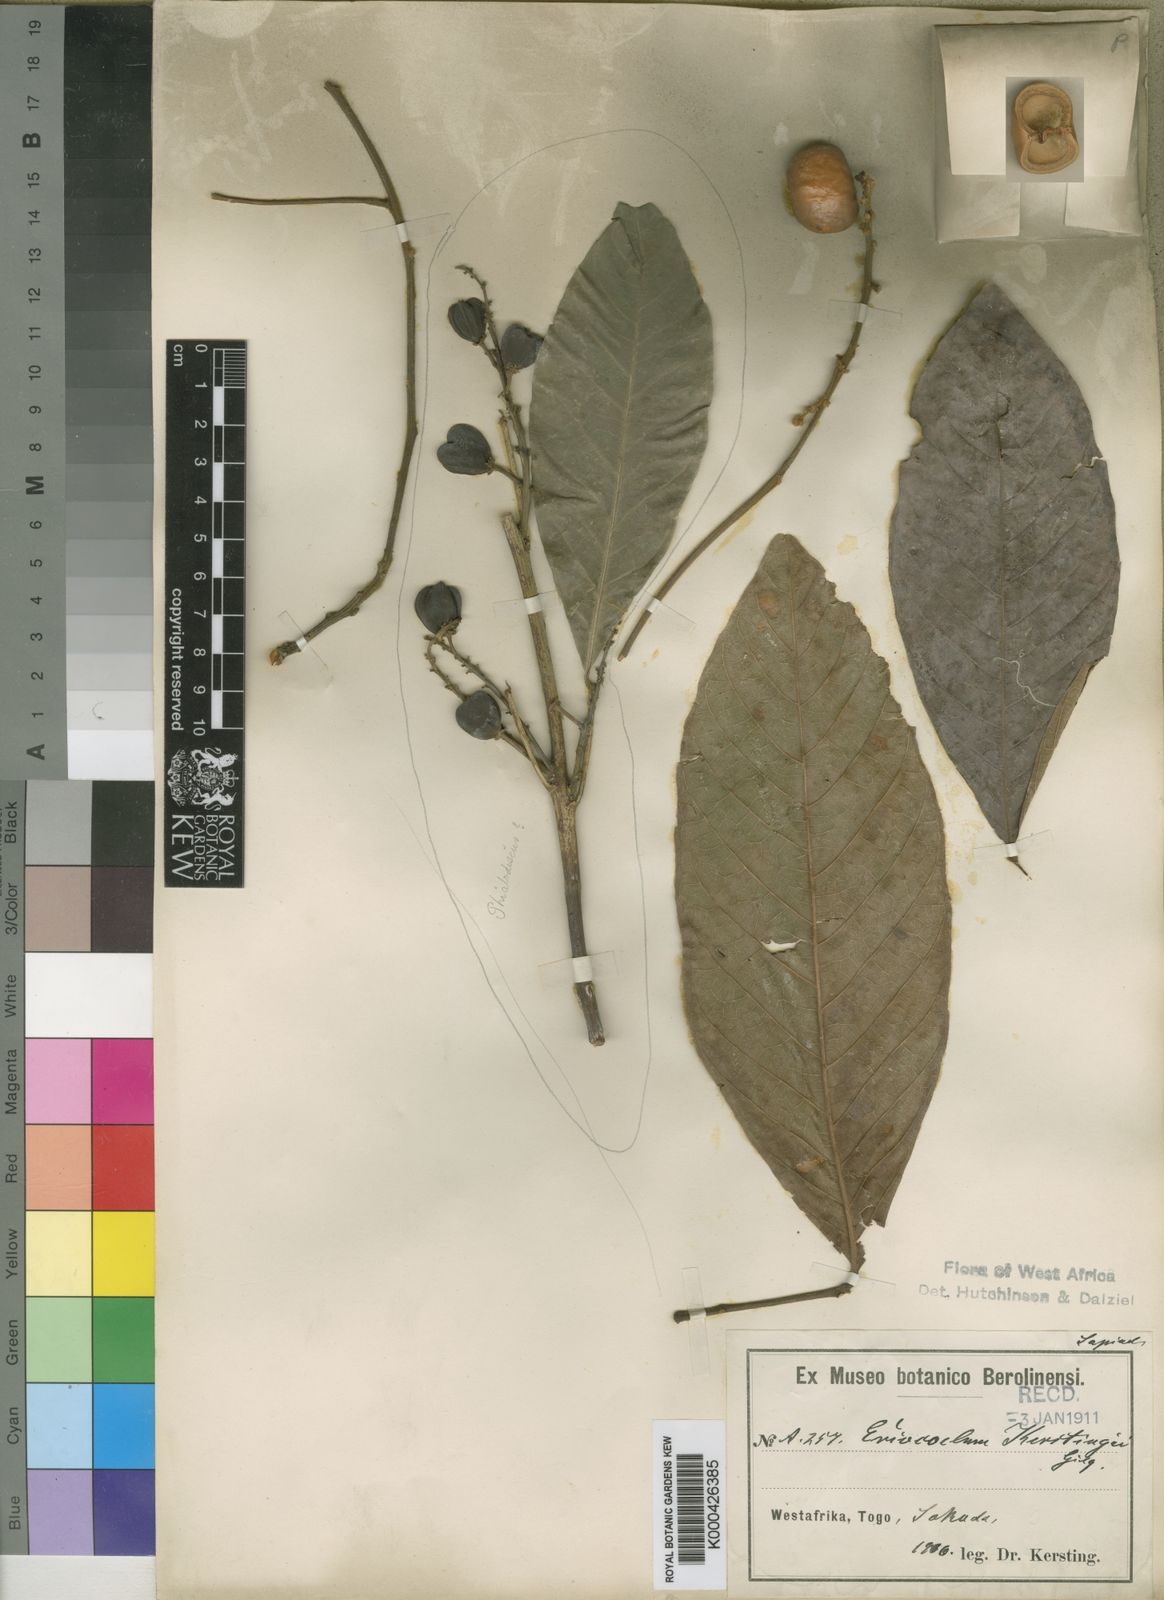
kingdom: Plantae
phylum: Tracheophyta
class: Magnoliopsida
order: Sapindales
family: Sapindaceae
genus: Eriocoelum
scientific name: Eriocoelum kerstingii
